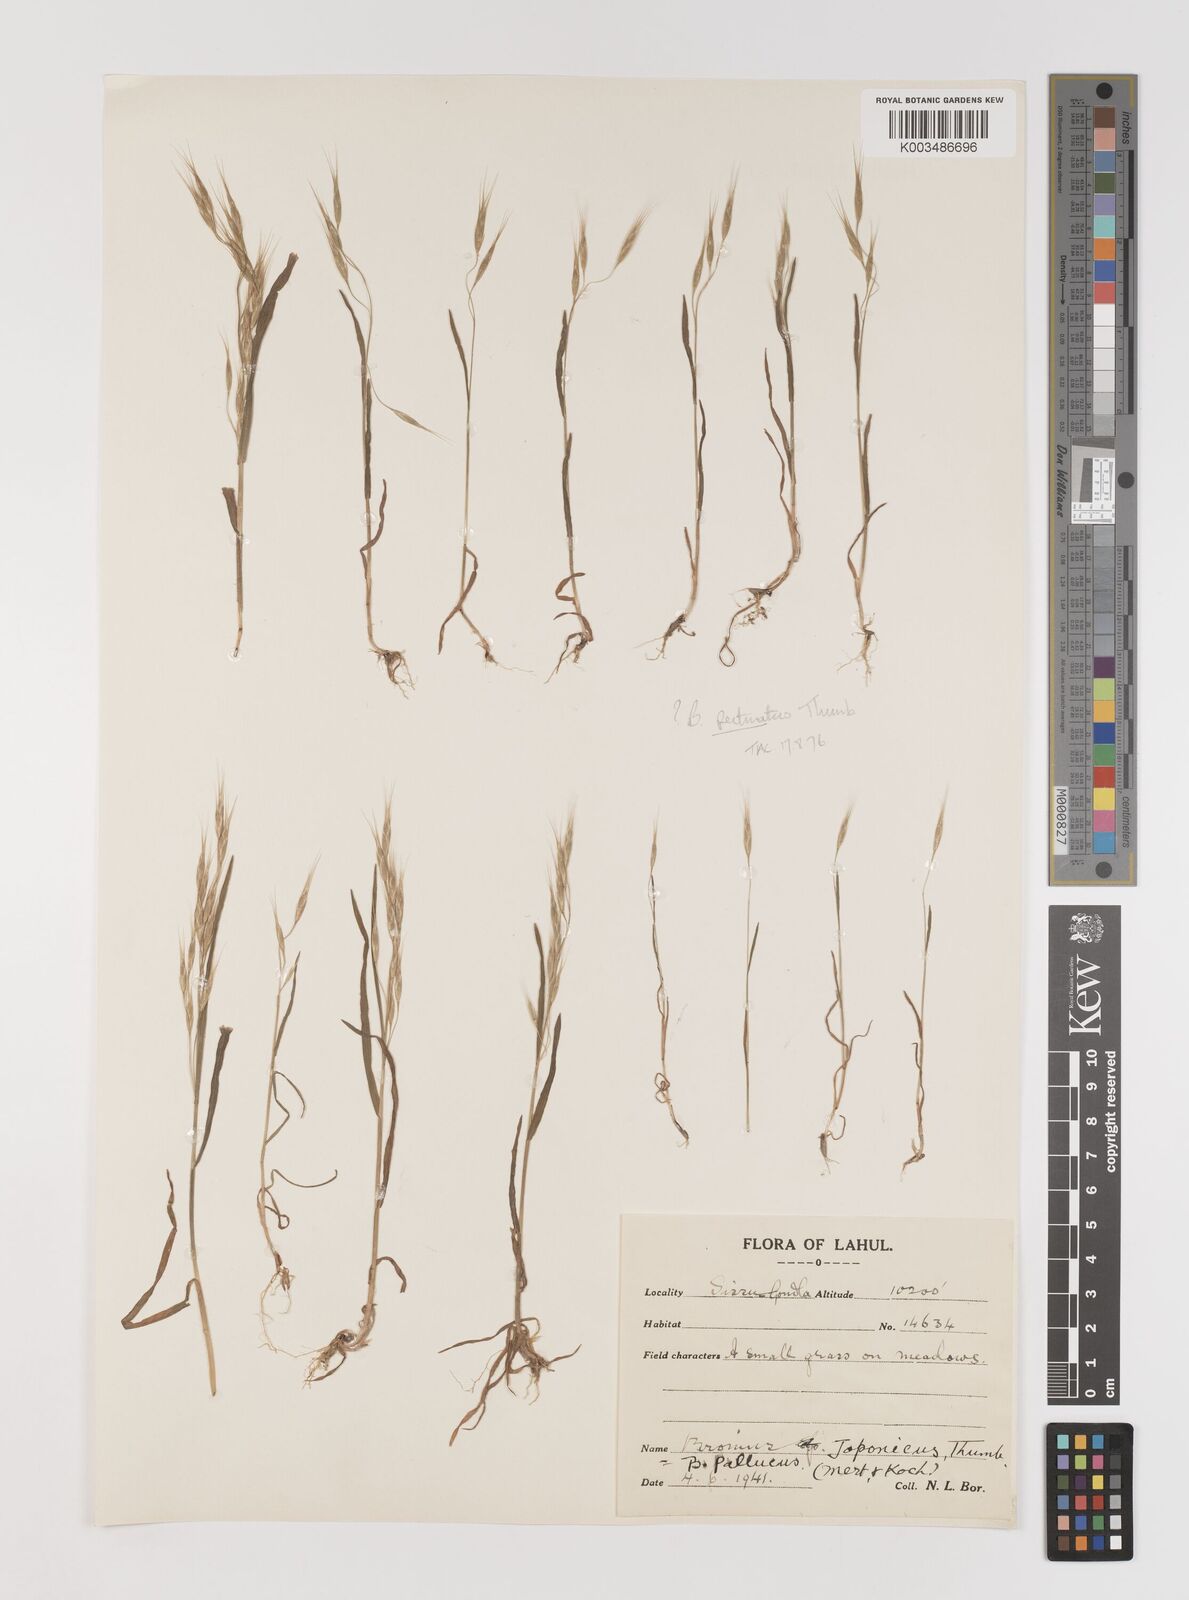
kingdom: Plantae
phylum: Tracheophyta
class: Liliopsida
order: Poales
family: Poaceae
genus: Bromus
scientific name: Bromus pectinatus
